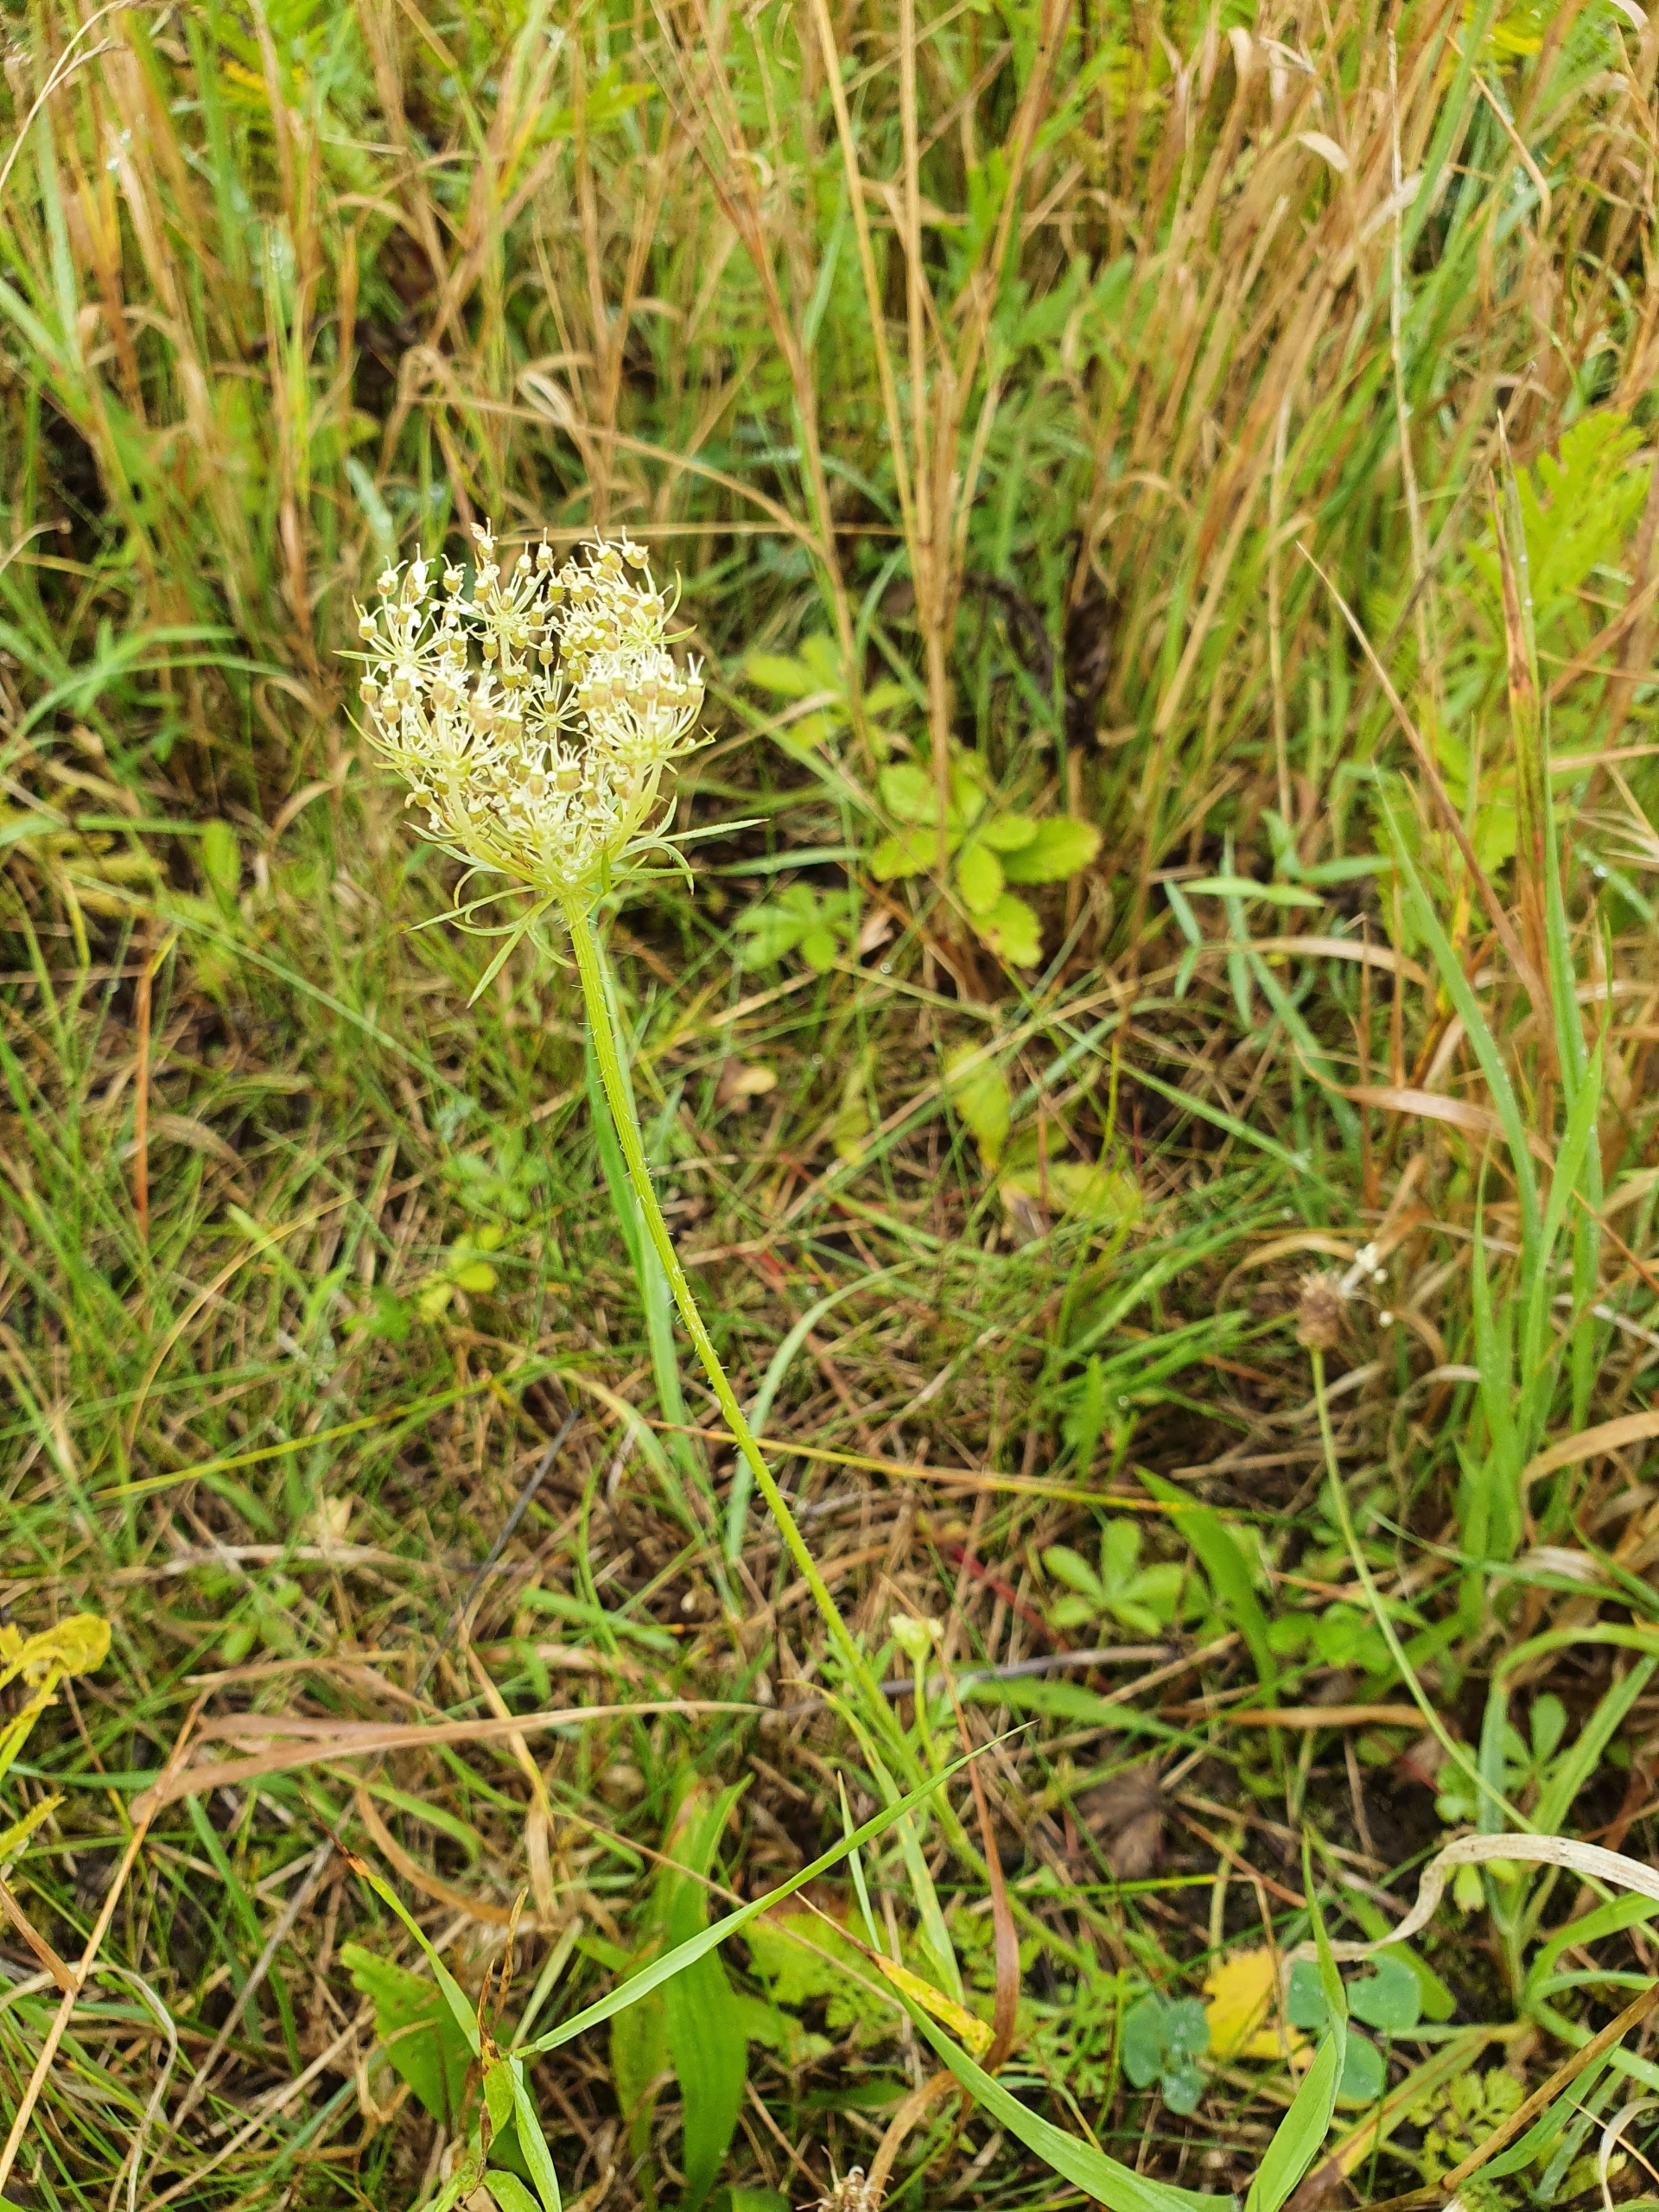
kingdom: Plantae
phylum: Tracheophyta
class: Magnoliopsida
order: Apiales
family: Apiaceae
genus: Daucus
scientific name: Daucus carota
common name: Gulerod
